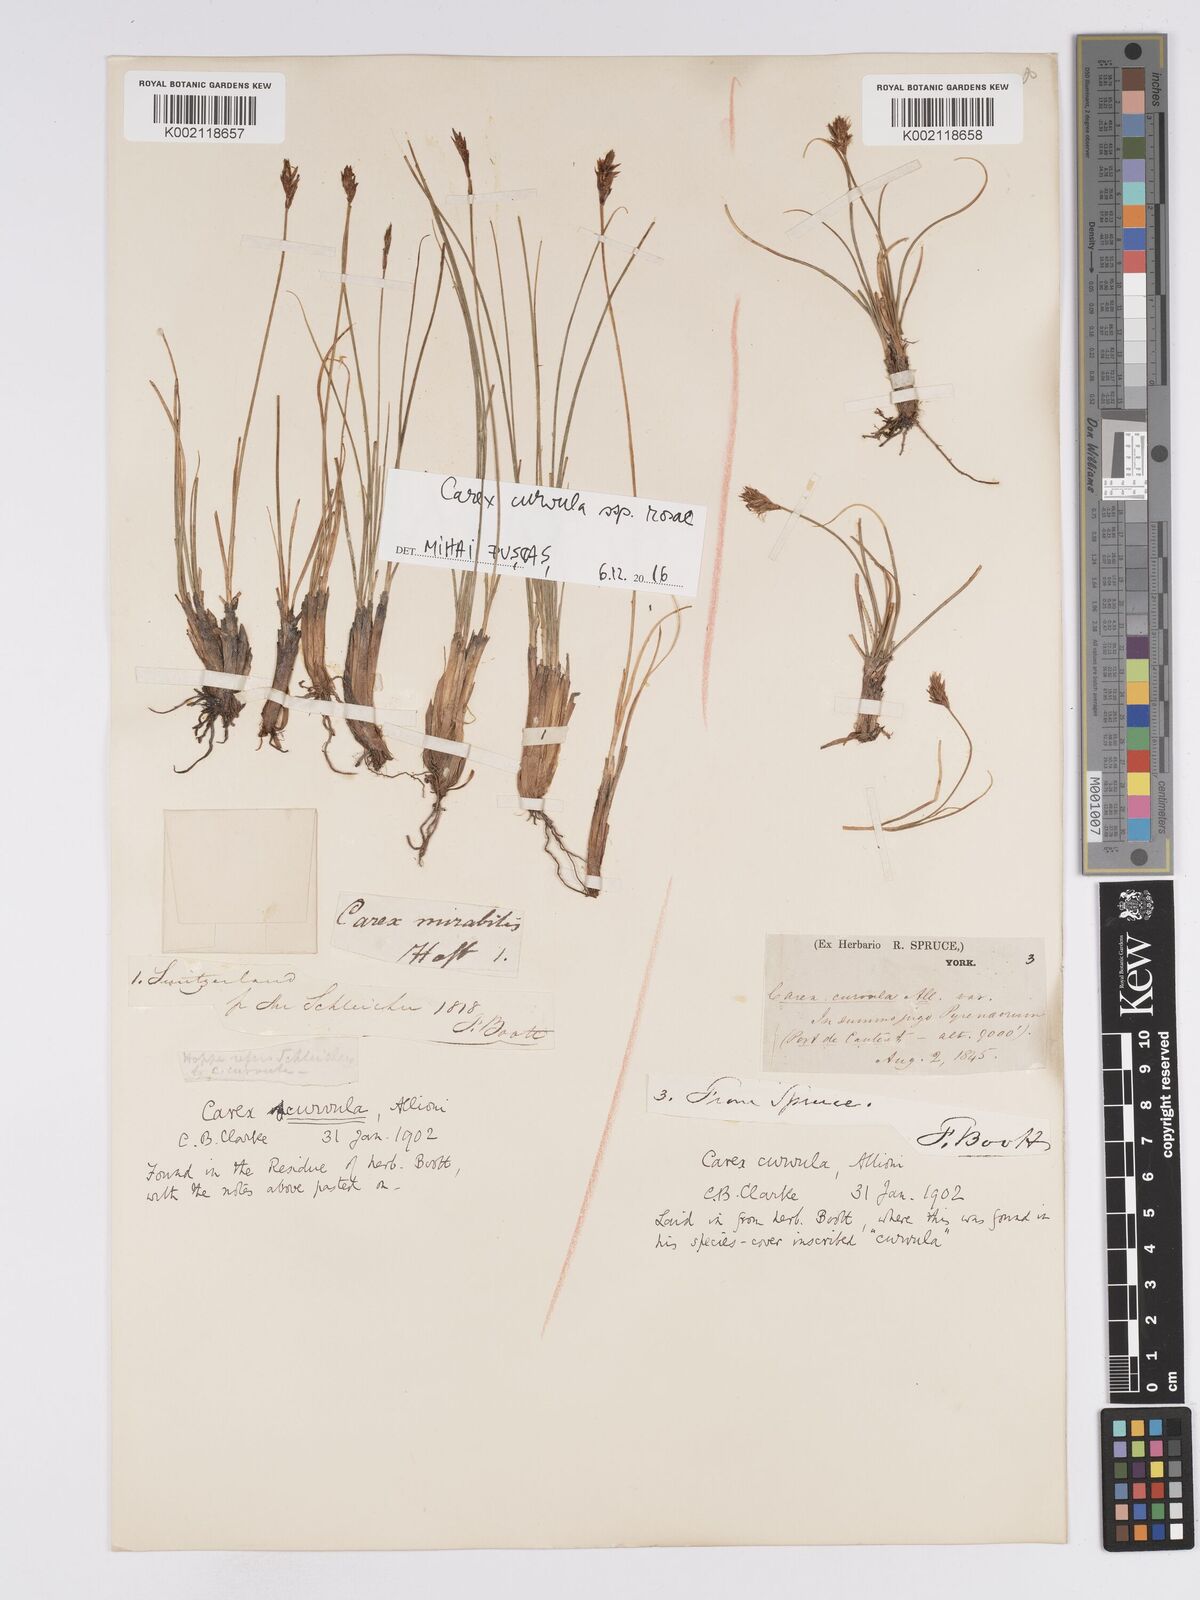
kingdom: Plantae
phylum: Tracheophyta
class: Liliopsida
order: Poales
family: Cyperaceae
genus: Carex
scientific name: Carex curvula
